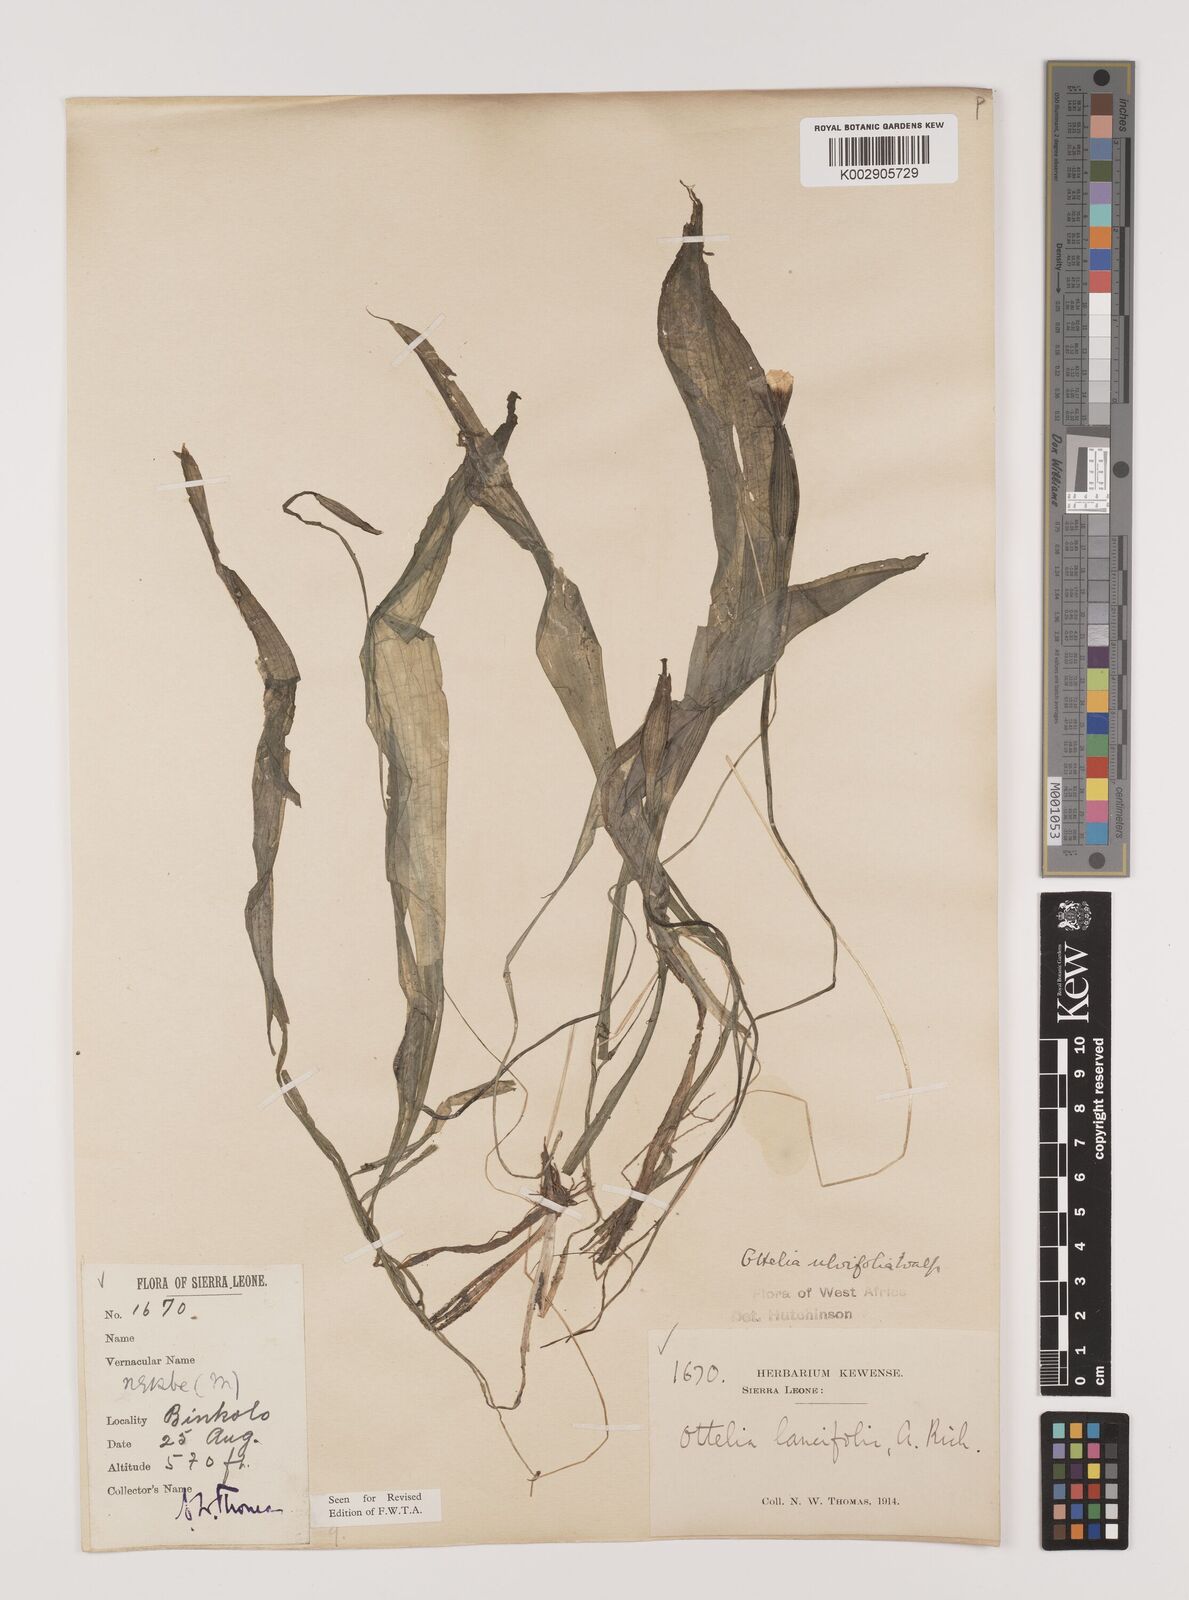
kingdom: Plantae
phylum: Tracheophyta
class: Liliopsida
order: Alismatales
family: Hydrocharitaceae
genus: Ottelia
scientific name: Ottelia ulvifolia
